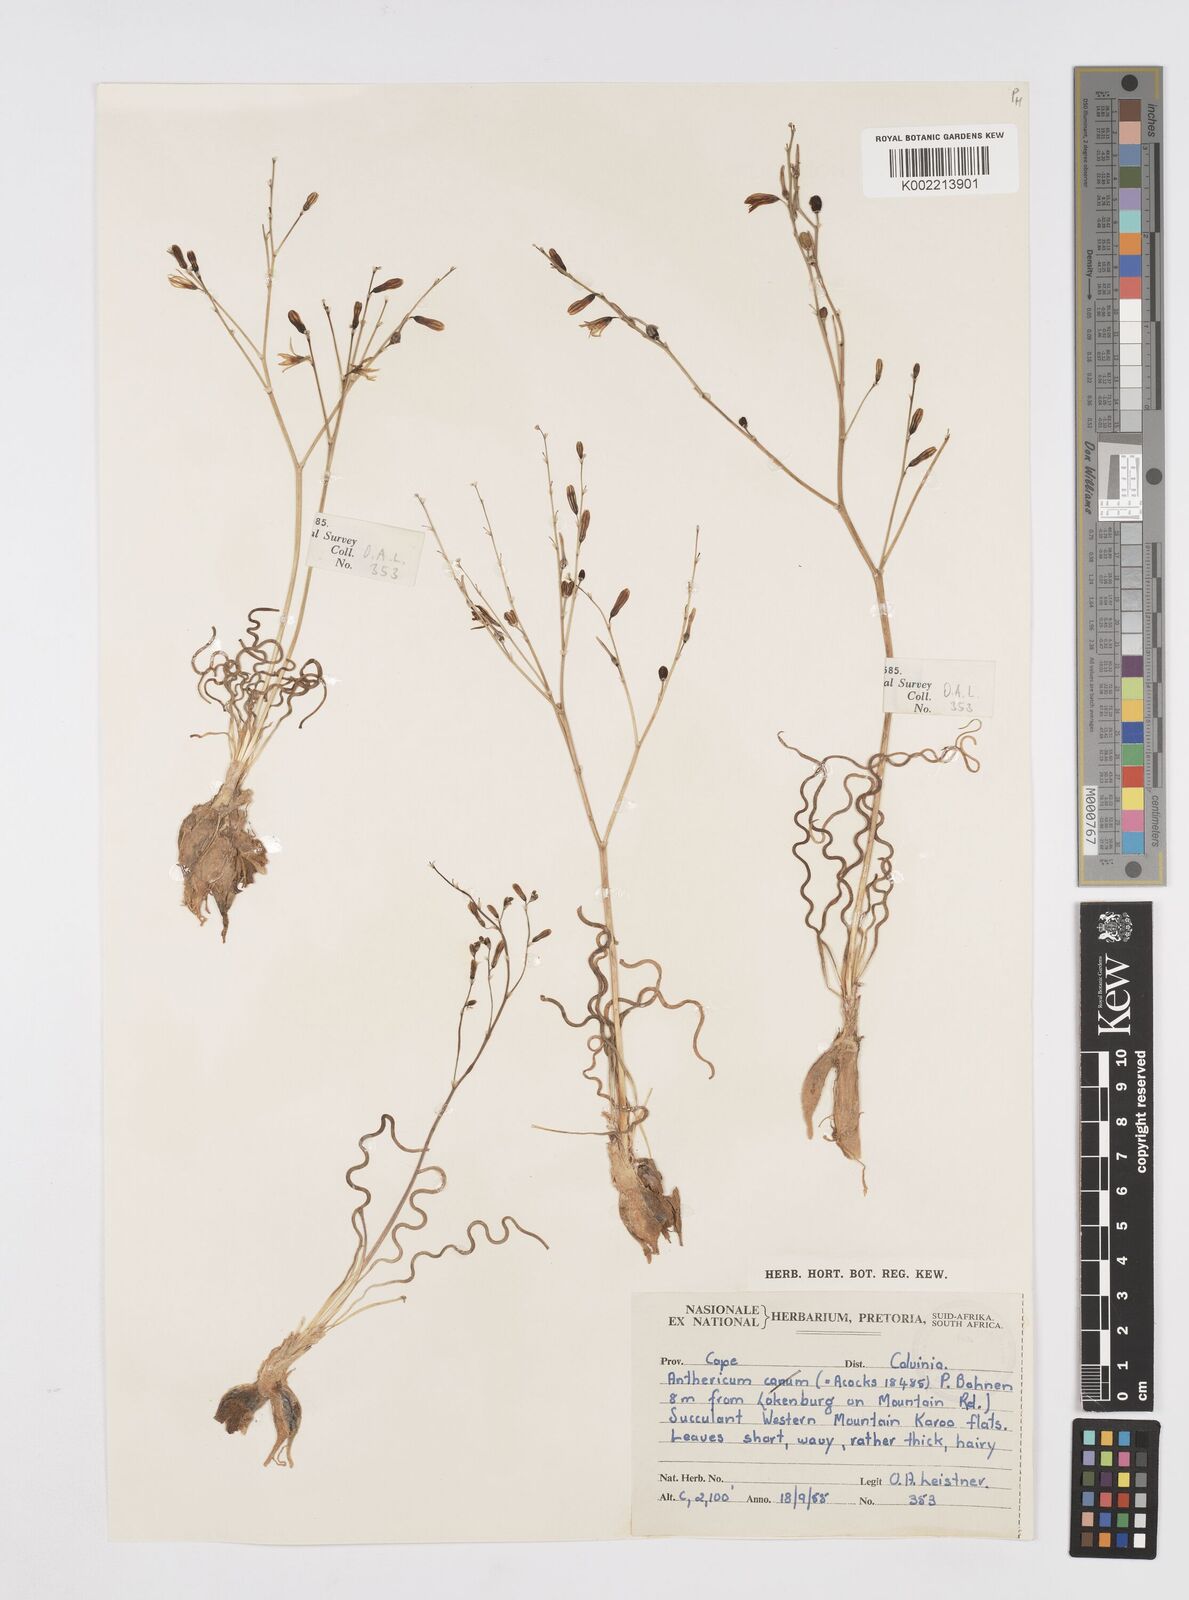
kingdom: Plantae
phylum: Tracheophyta
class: Liliopsida
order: Asparagales
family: Asphodelaceae
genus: Trachyandra
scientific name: Trachyandra flexifolia
